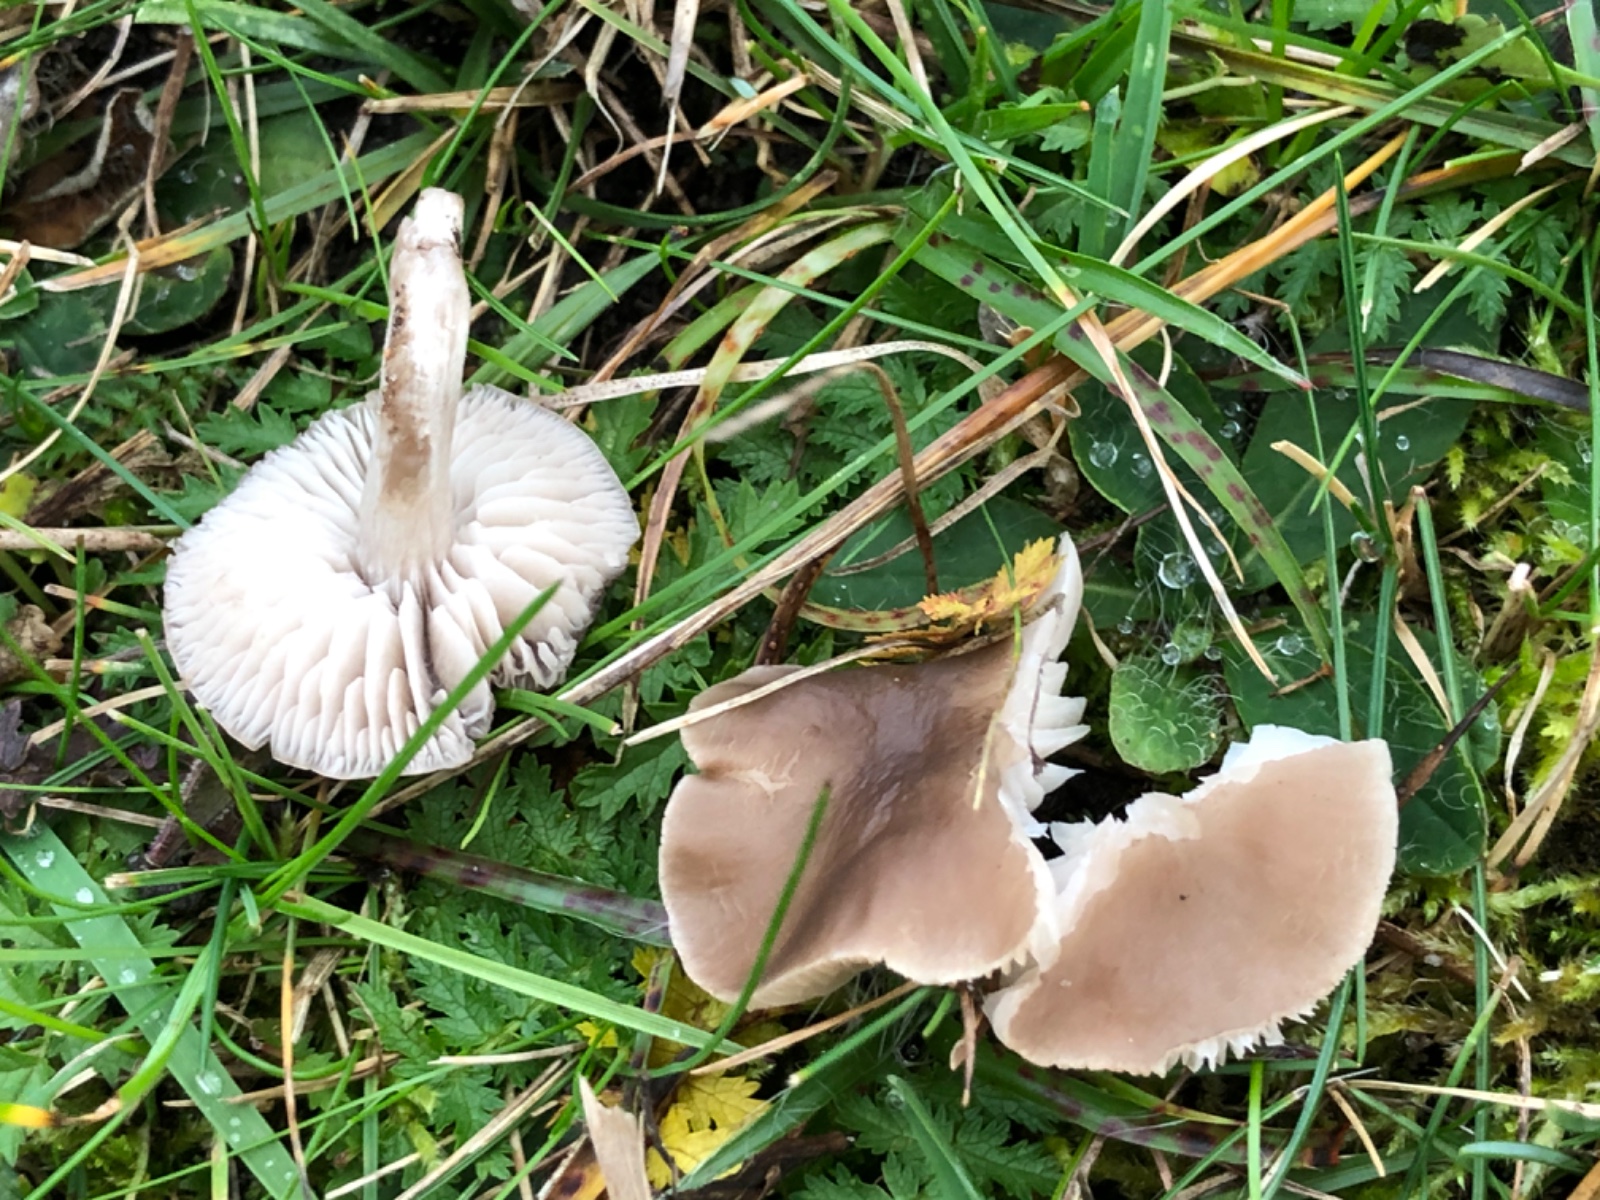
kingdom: Fungi
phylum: Basidiomycota
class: Agaricomycetes
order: Agaricales
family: Tricholomataceae
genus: Dermoloma
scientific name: Dermoloma cuneifolium
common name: eng-nonnehat
